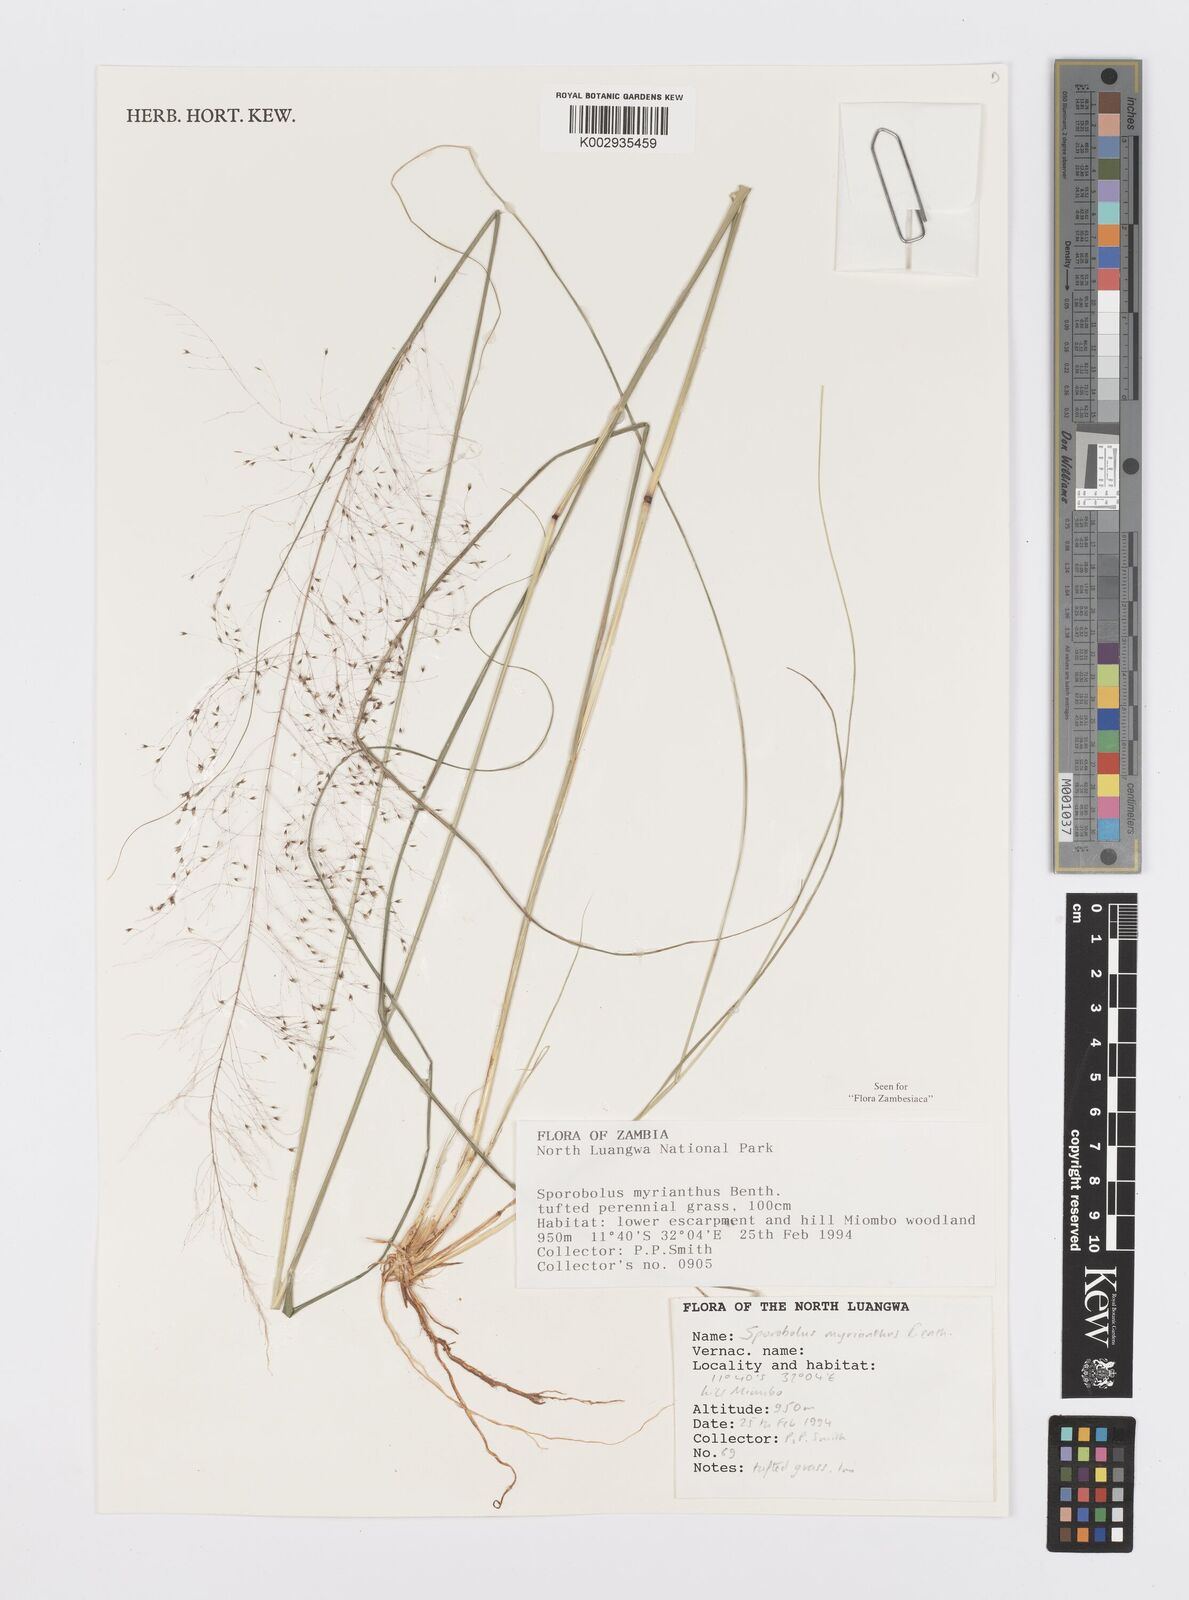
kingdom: Plantae
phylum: Tracheophyta
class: Liliopsida
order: Poales
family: Poaceae
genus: Sporobolus
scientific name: Sporobolus myrianthus
